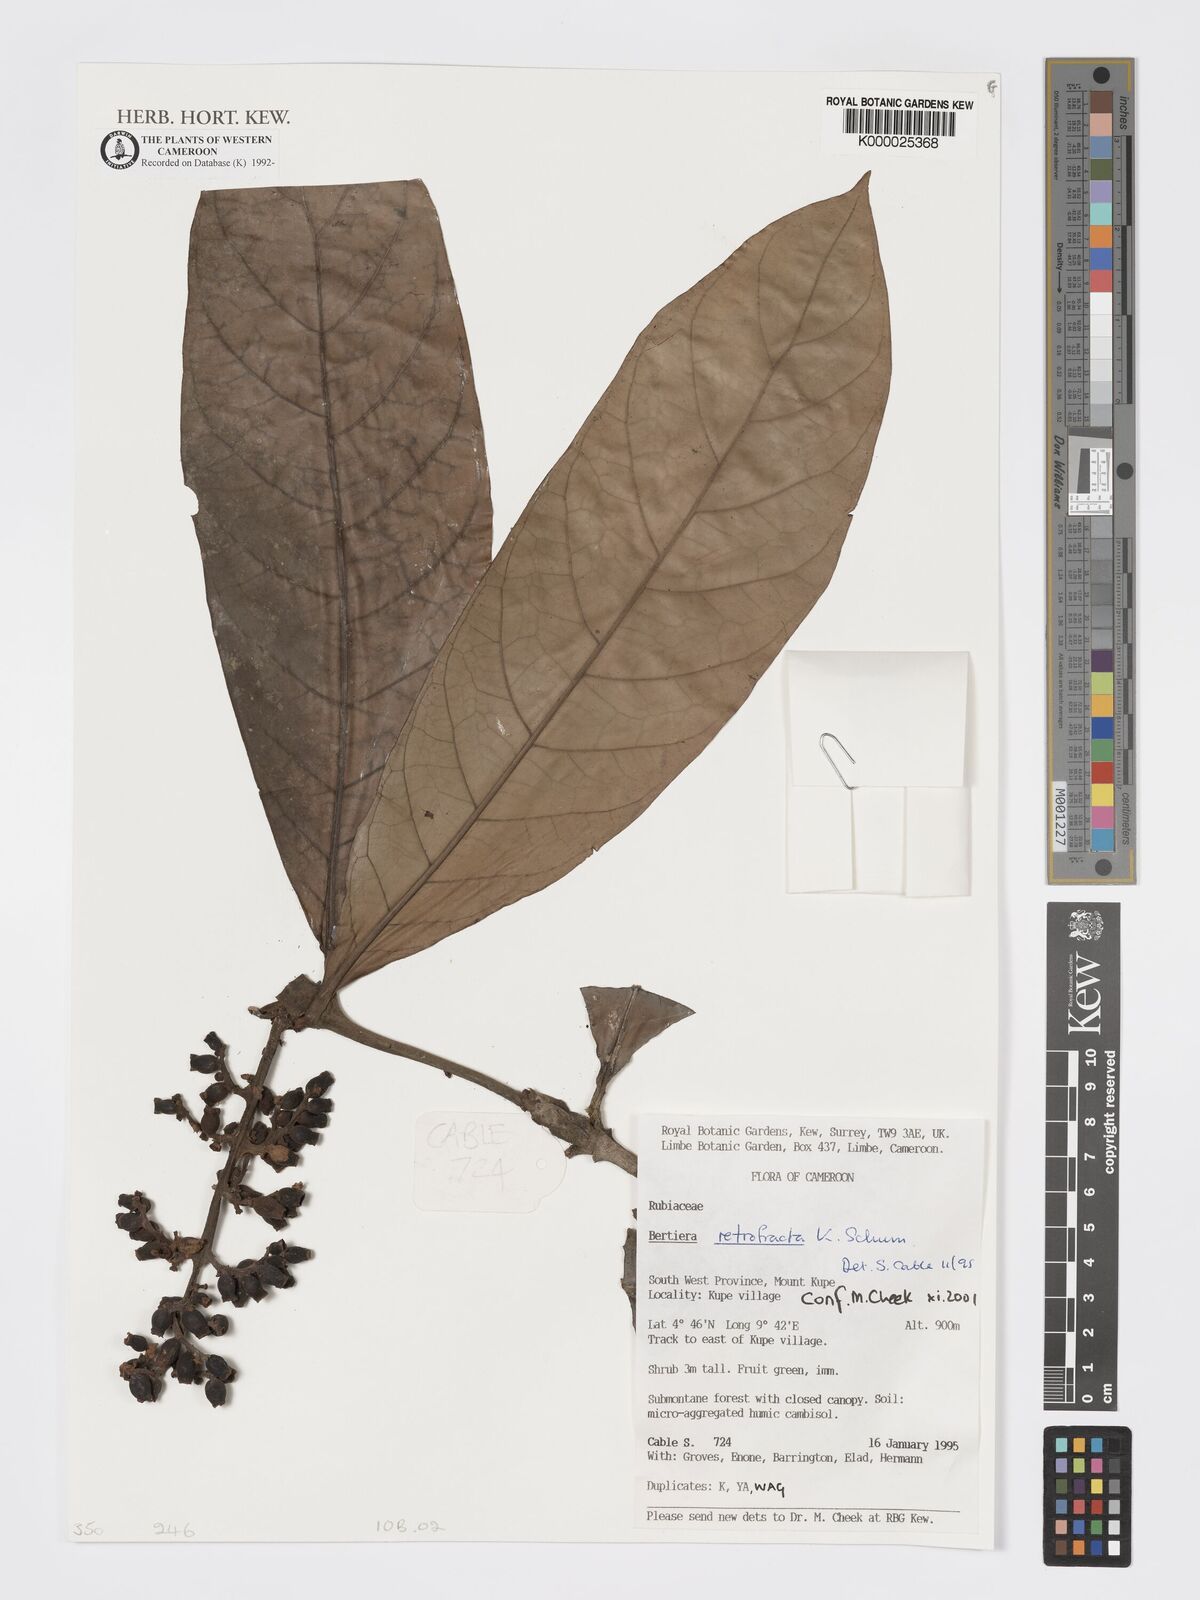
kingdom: Plantae
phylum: Tracheophyta
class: Magnoliopsida
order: Gentianales
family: Rubiaceae
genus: Bertiera
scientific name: Bertiera retrofracta
